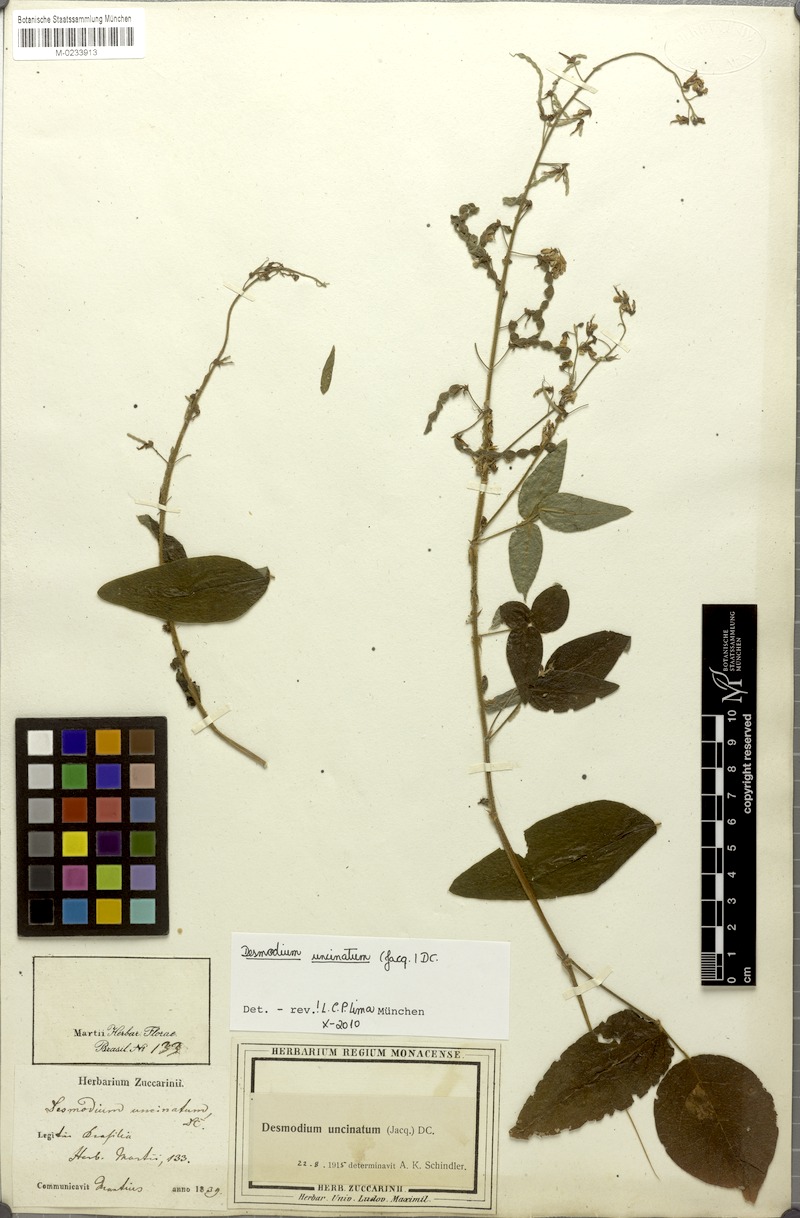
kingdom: Plantae
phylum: Tracheophyta
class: Magnoliopsida
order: Fabales
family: Fabaceae
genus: Desmodium
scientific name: Desmodium uncinatum
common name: Silverleaf desmodium
